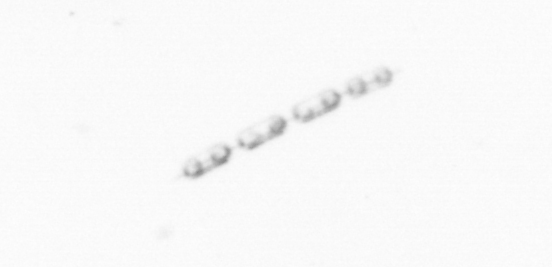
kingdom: Chromista
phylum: Ochrophyta
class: Bacillariophyceae
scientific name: Bacillariophyceae
